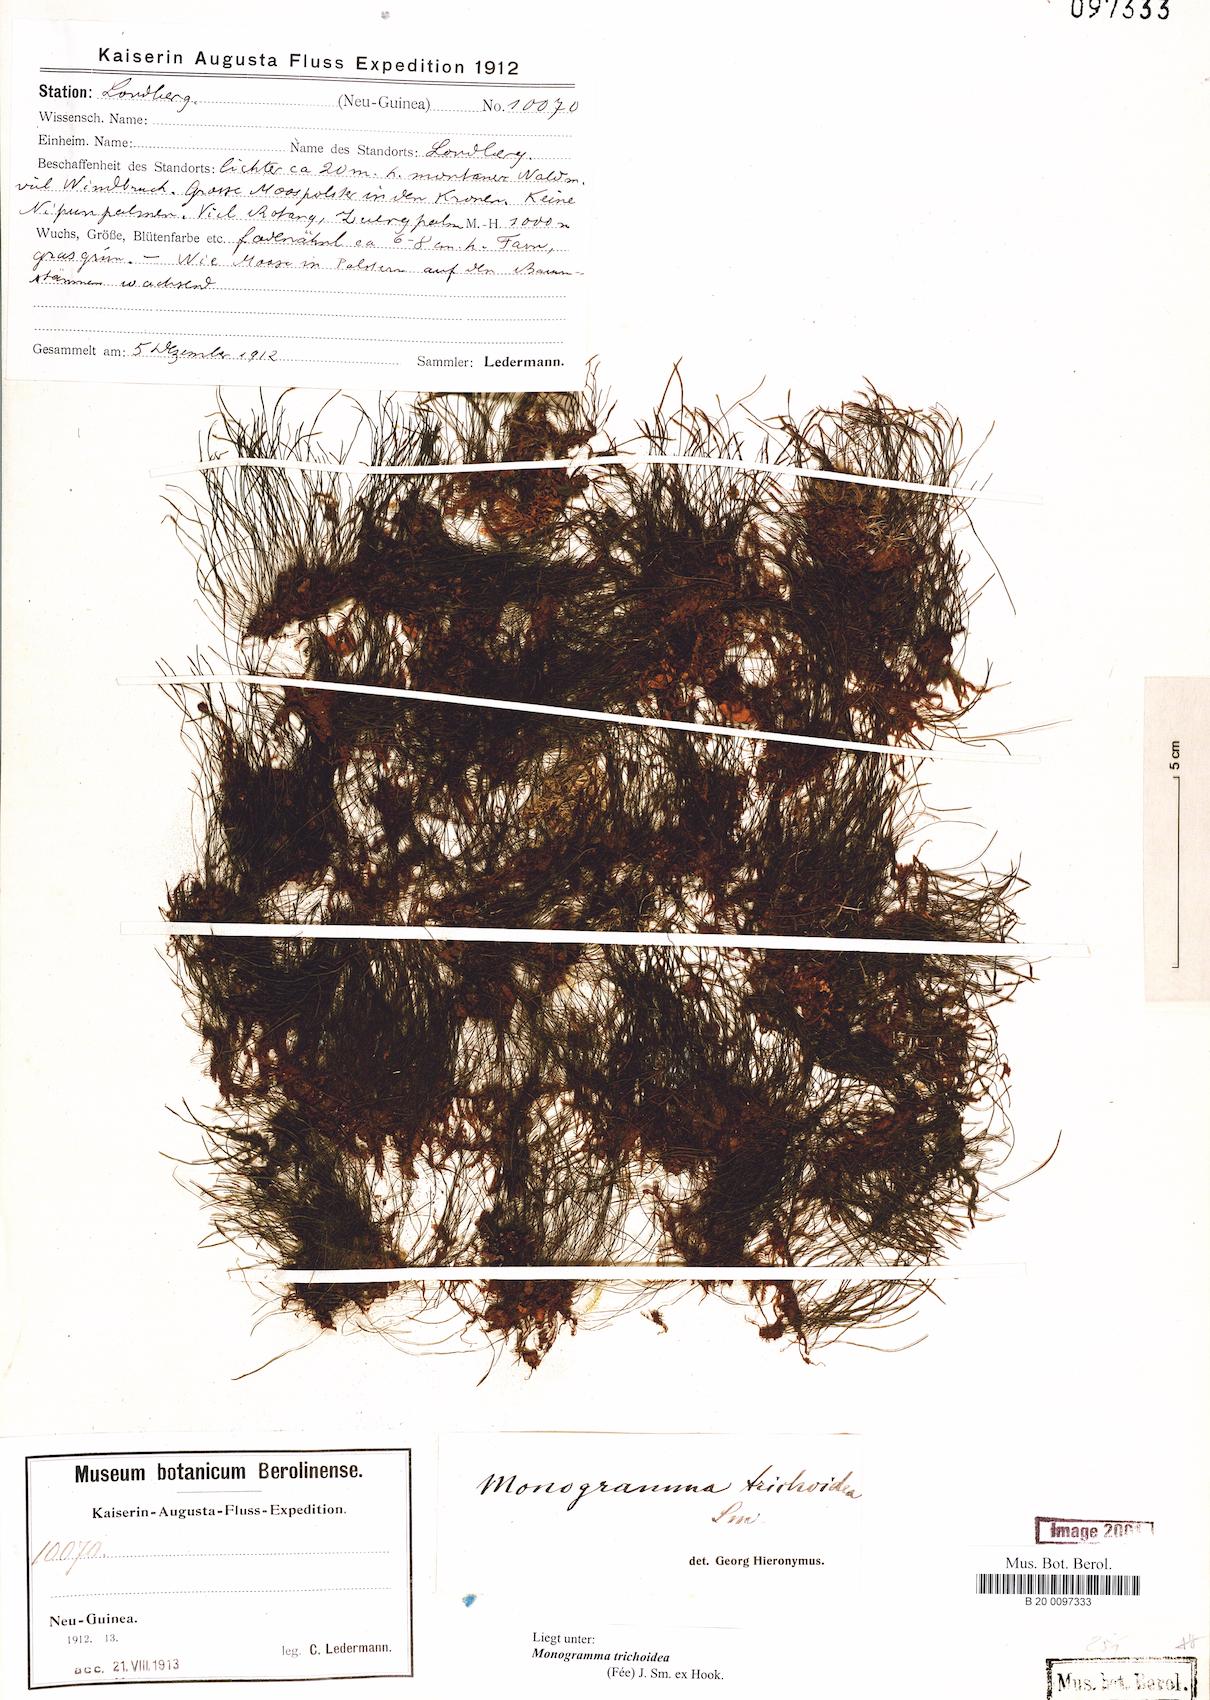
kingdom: Plantae
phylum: Tracheophyta
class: Polypodiopsida
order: Polypodiales
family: Pteridaceae
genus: Vaginularia
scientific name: Vaginularia trichoidea
